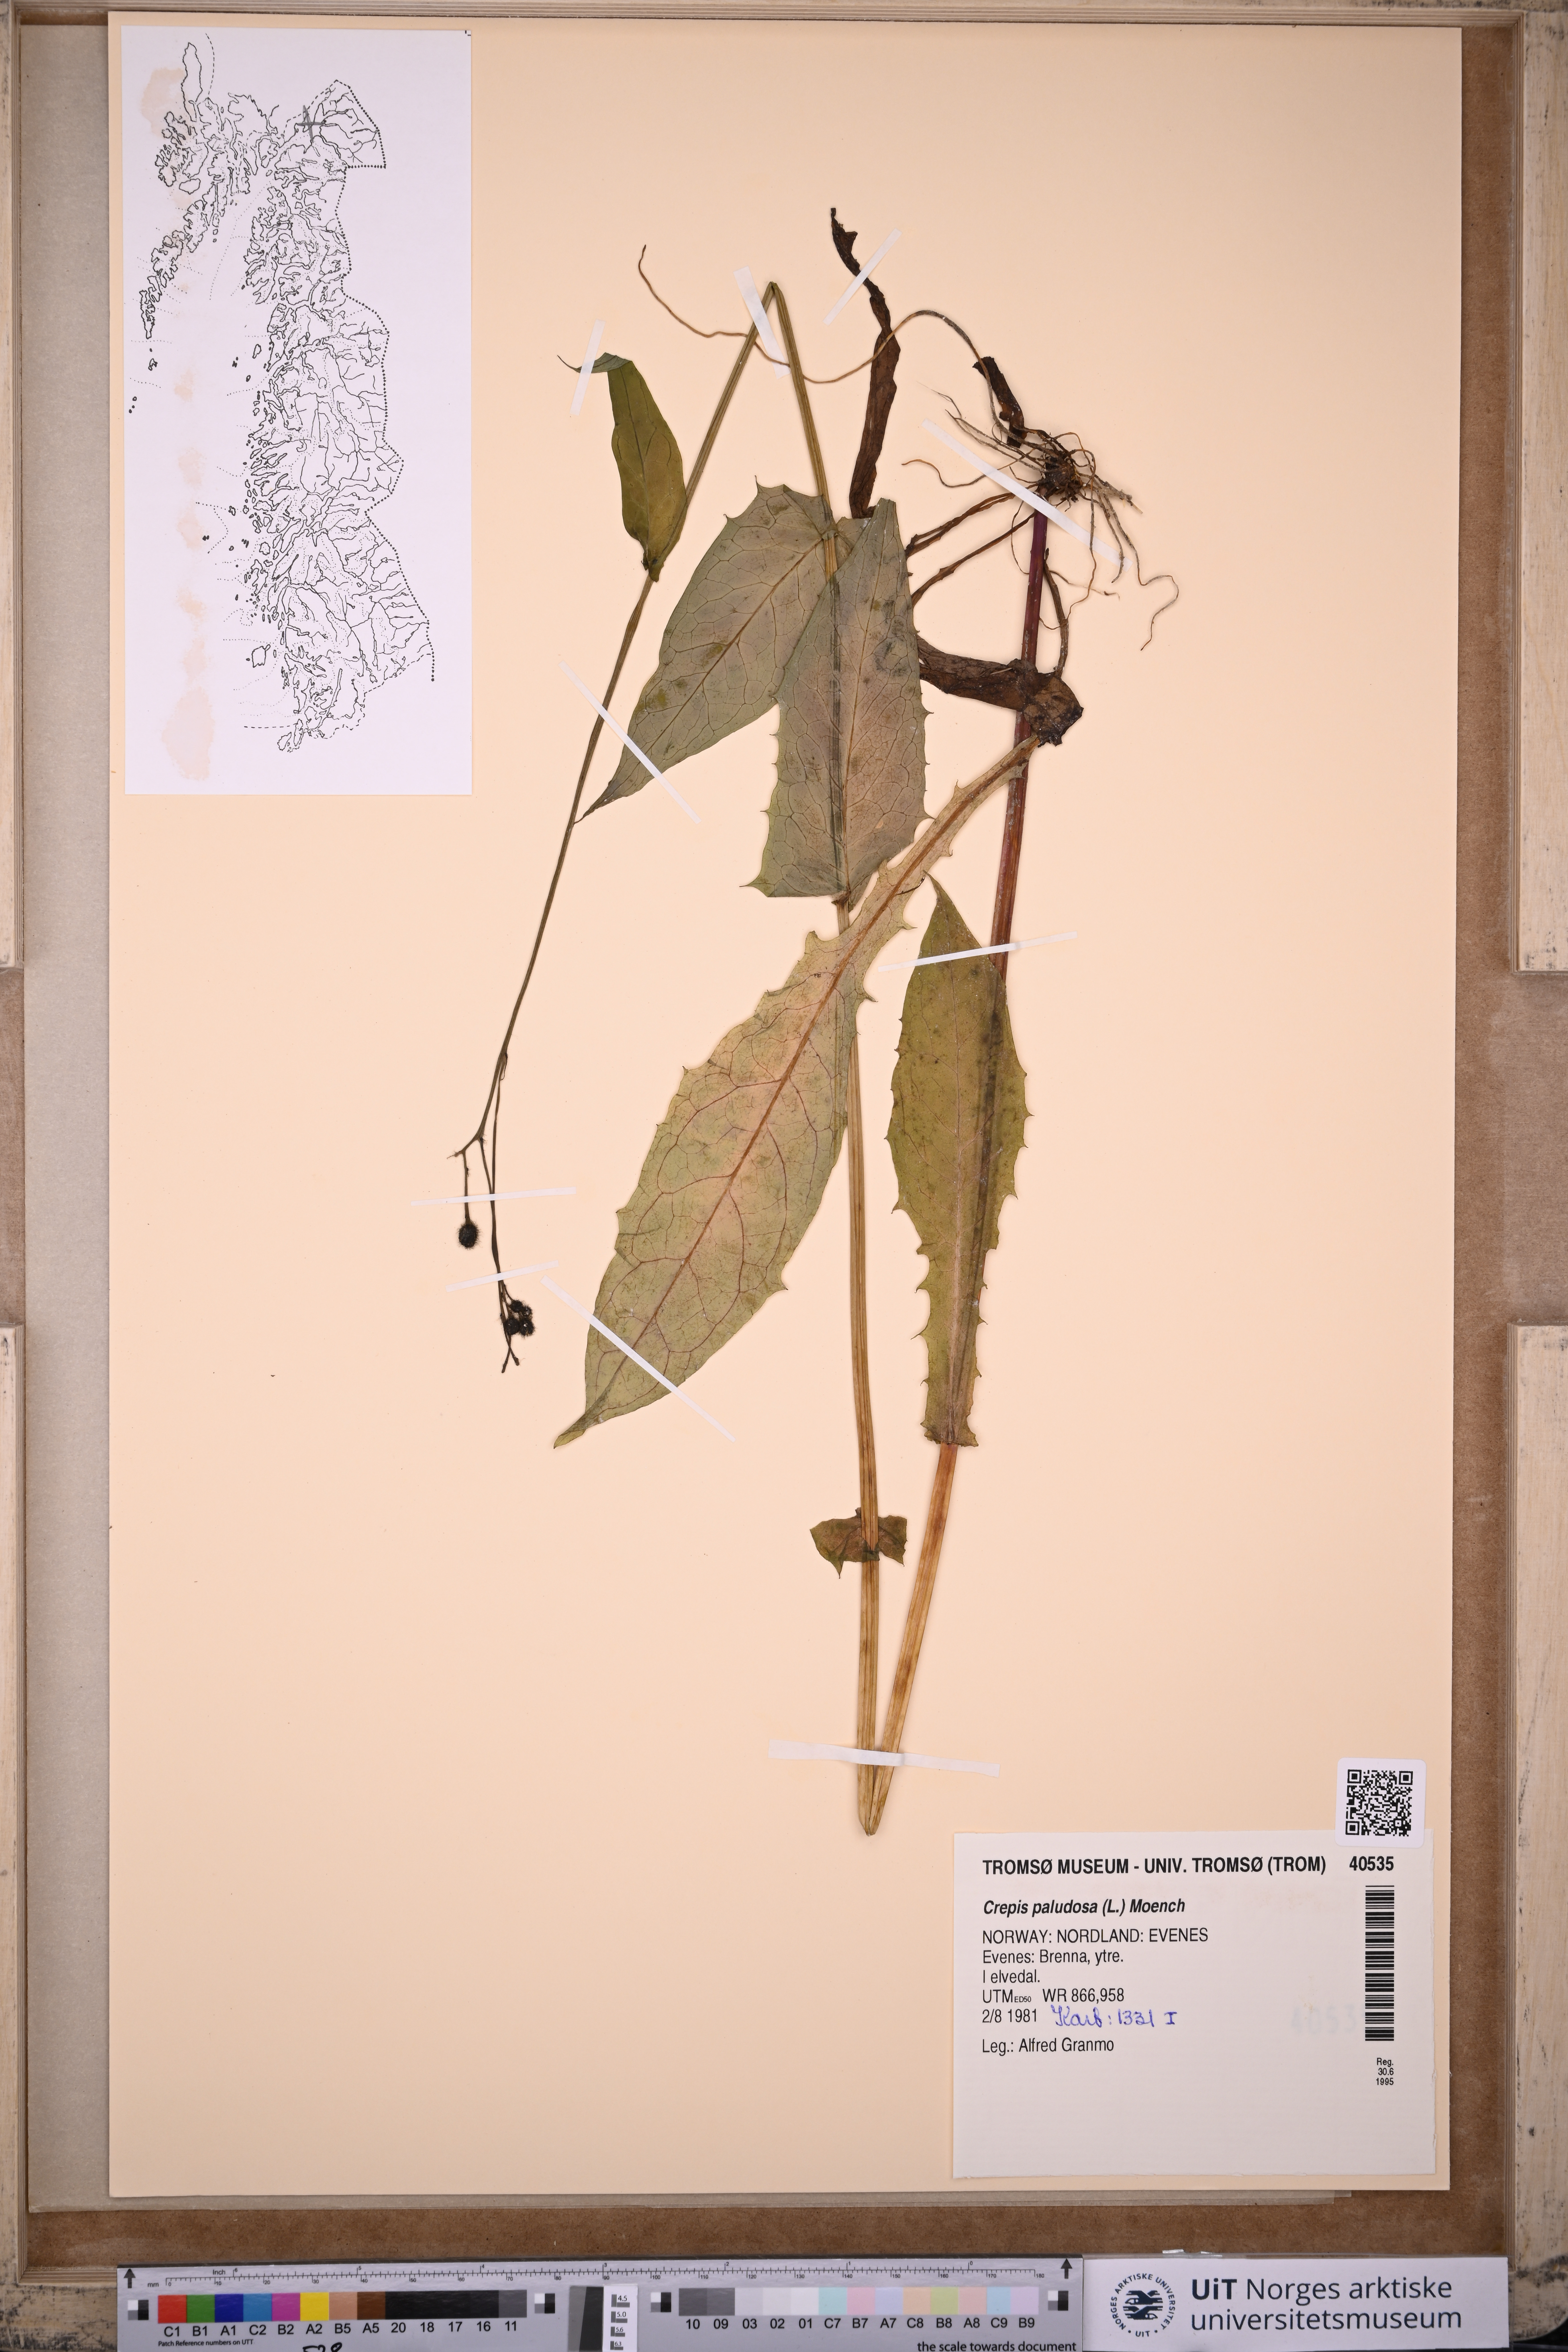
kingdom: Plantae
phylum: Tracheophyta
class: Magnoliopsida
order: Asterales
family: Asteraceae
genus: Crepis
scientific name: Crepis paludosa
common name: Marsh hawk's-beard
